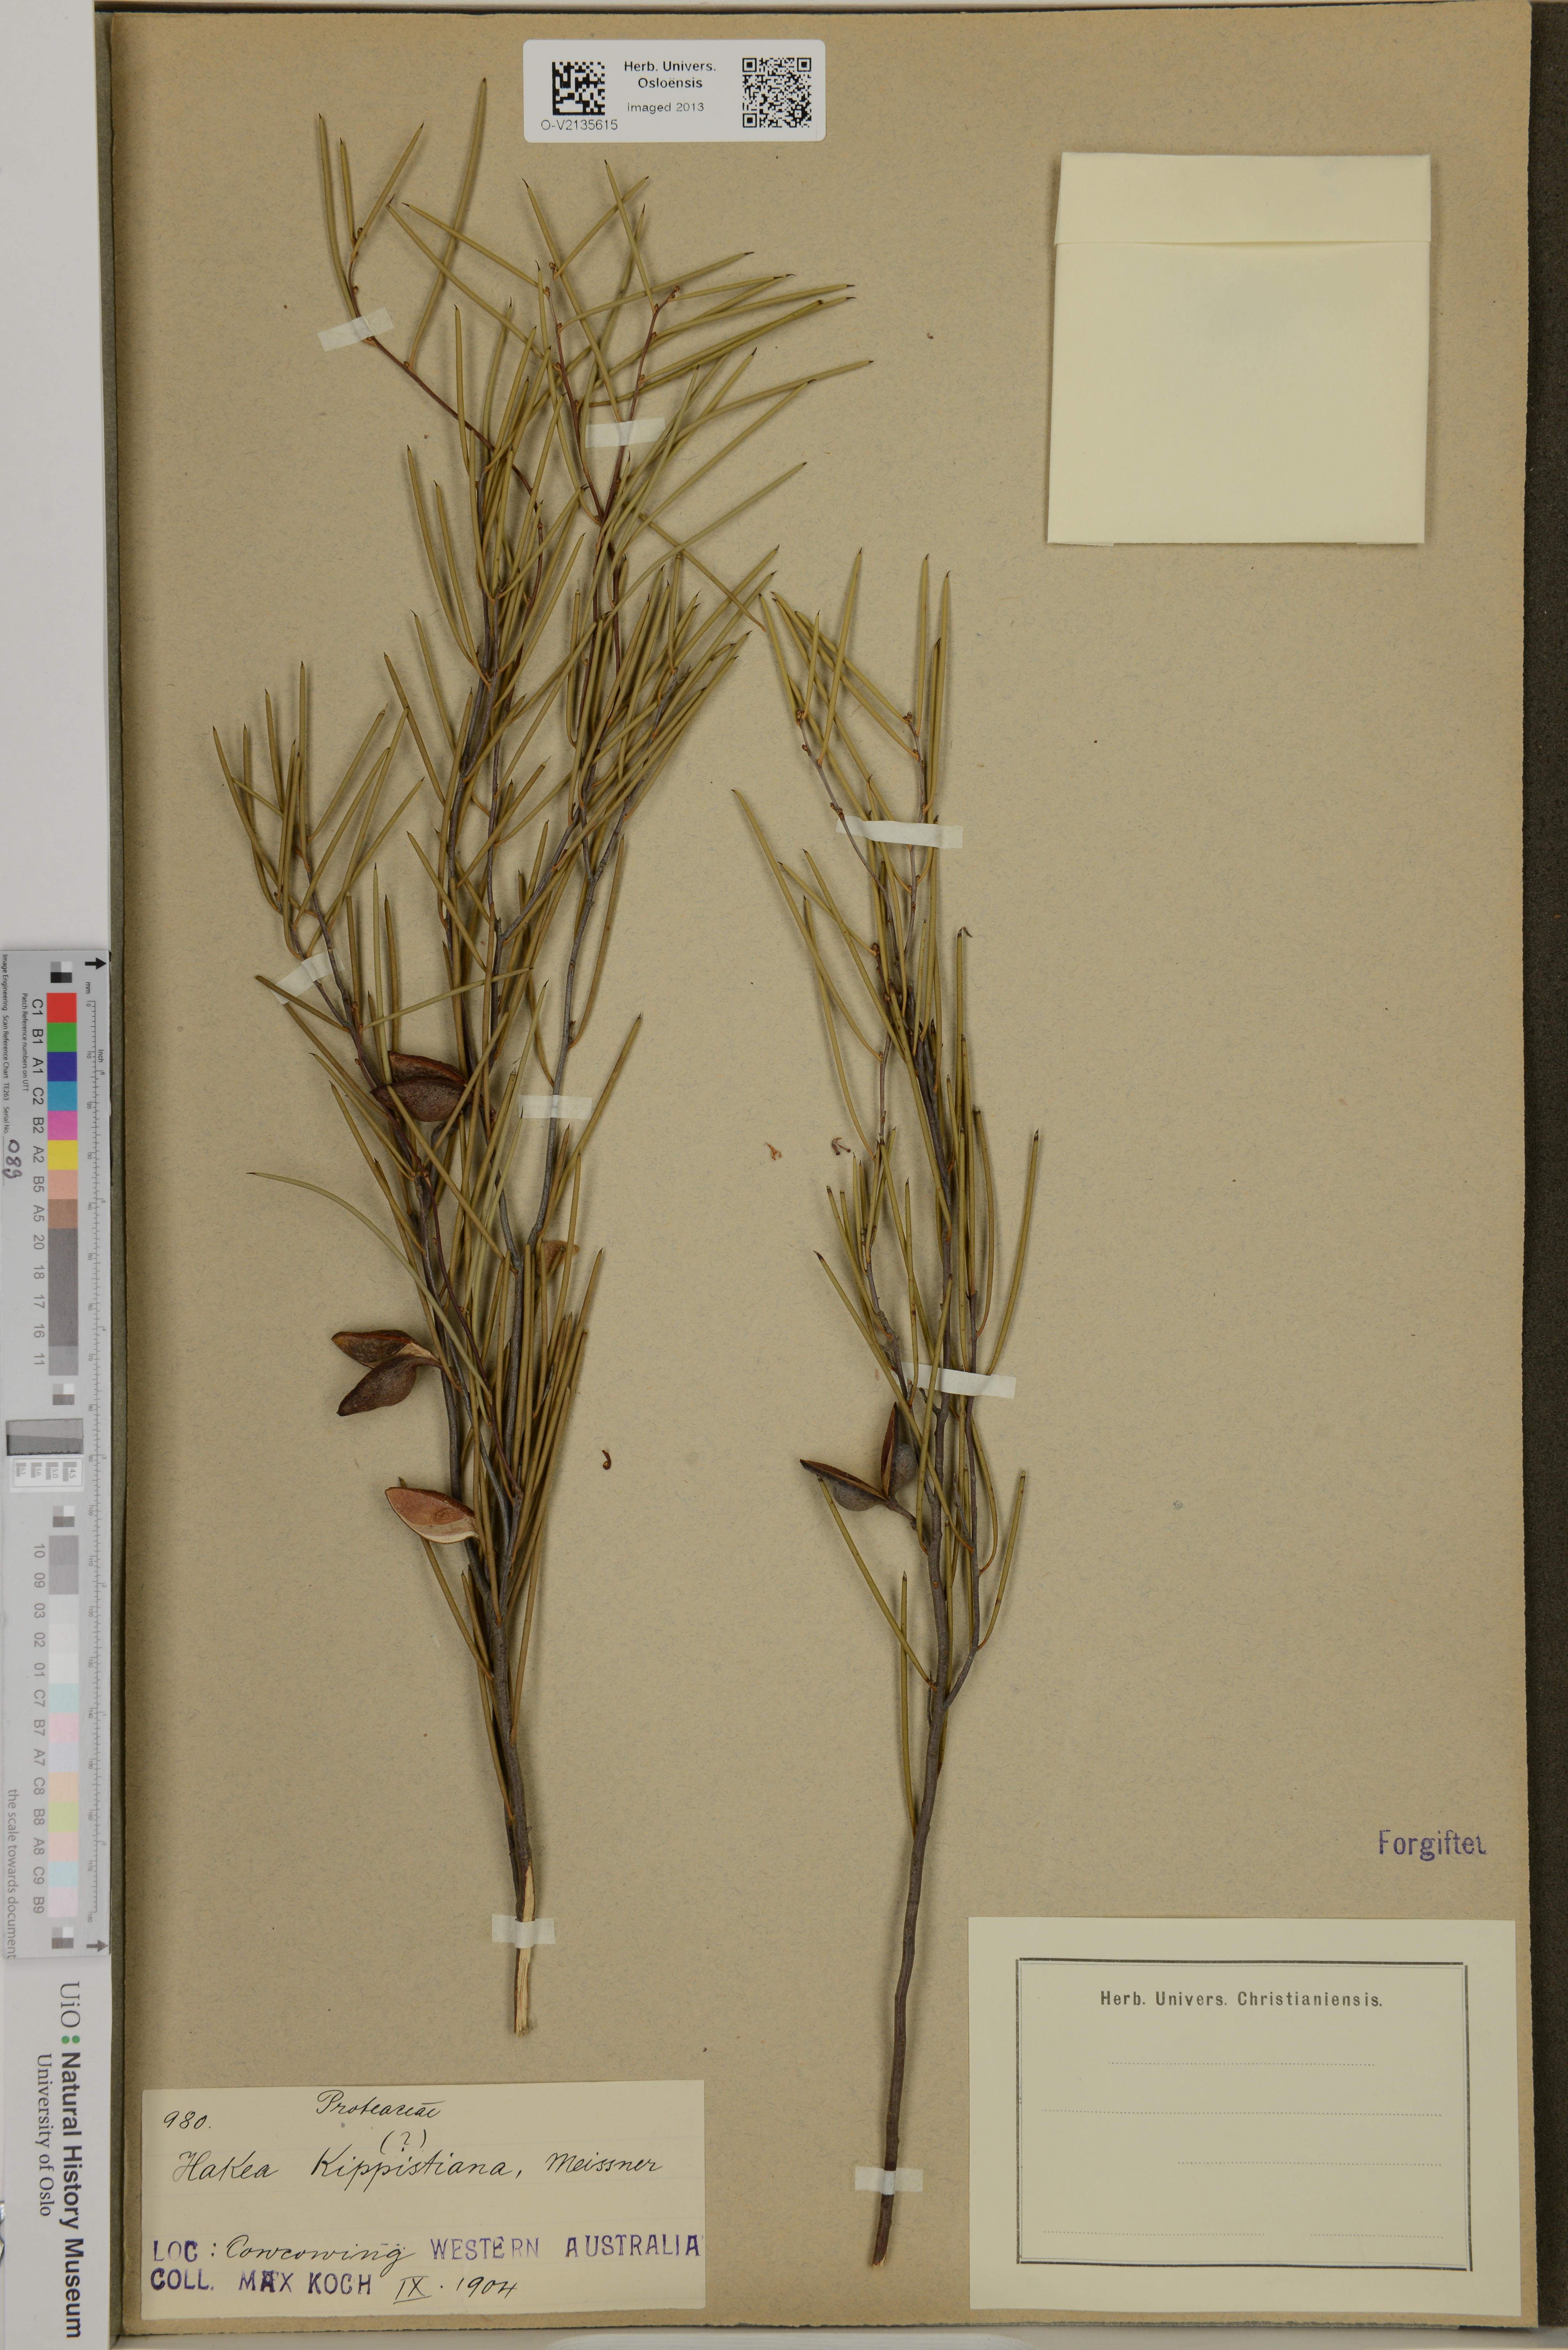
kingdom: Plantae
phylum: Tracheophyta
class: Magnoliopsida
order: Proteales
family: Proteaceae
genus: Hakea
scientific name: Hakea kippistiana
